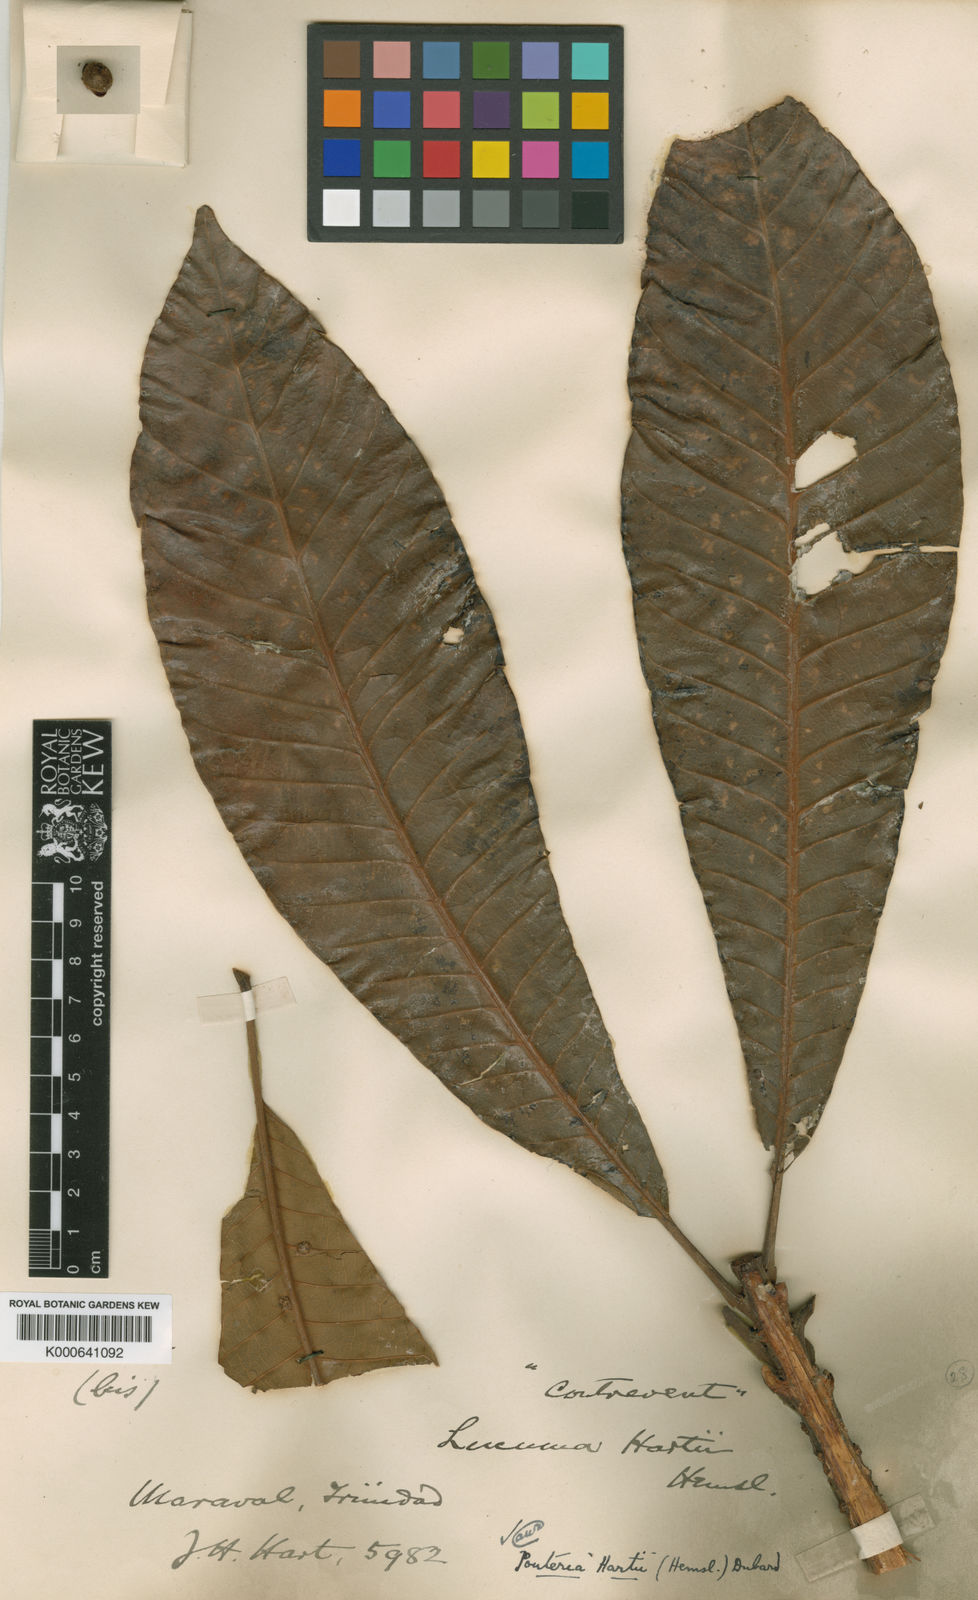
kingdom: Plantae
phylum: Tracheophyta
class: Magnoliopsida
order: Ericales
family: Sapotaceae
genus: Pouteria
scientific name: Pouteria guianensis
